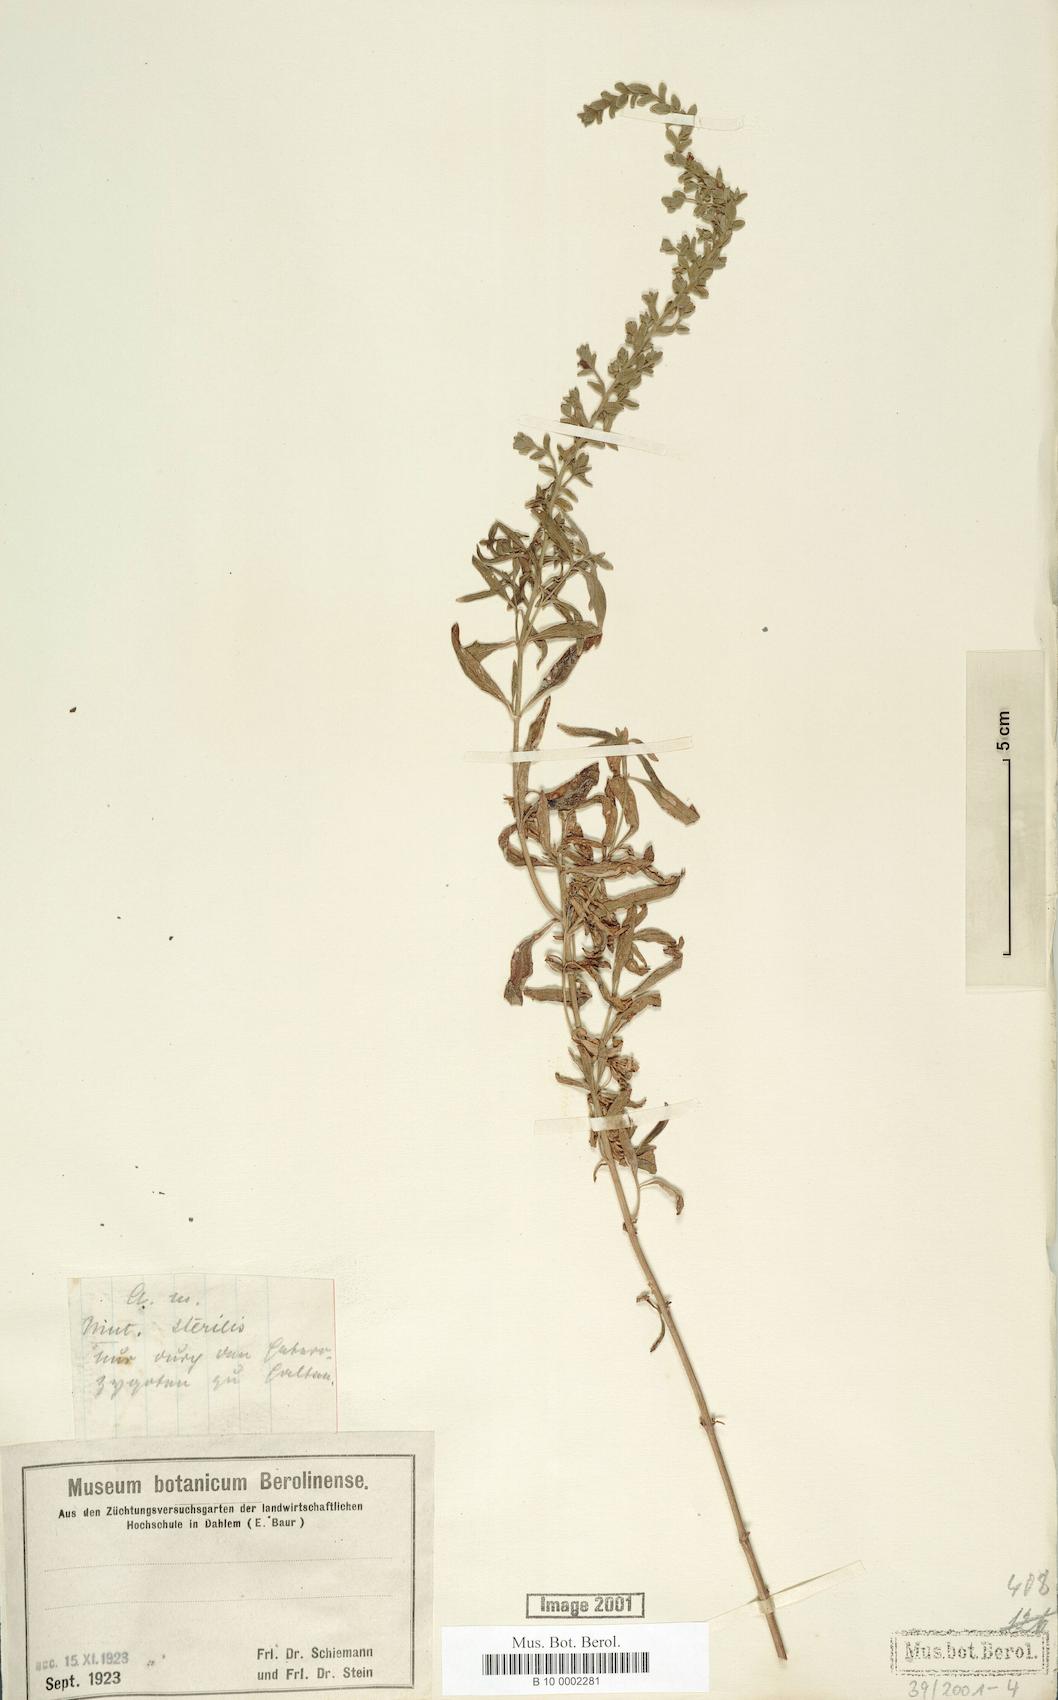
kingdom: Plantae
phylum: Tracheophyta
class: Magnoliopsida
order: Lamiales
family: Plantaginaceae
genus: Antirrhinum
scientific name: Antirrhinum majus
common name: Snapdragon
